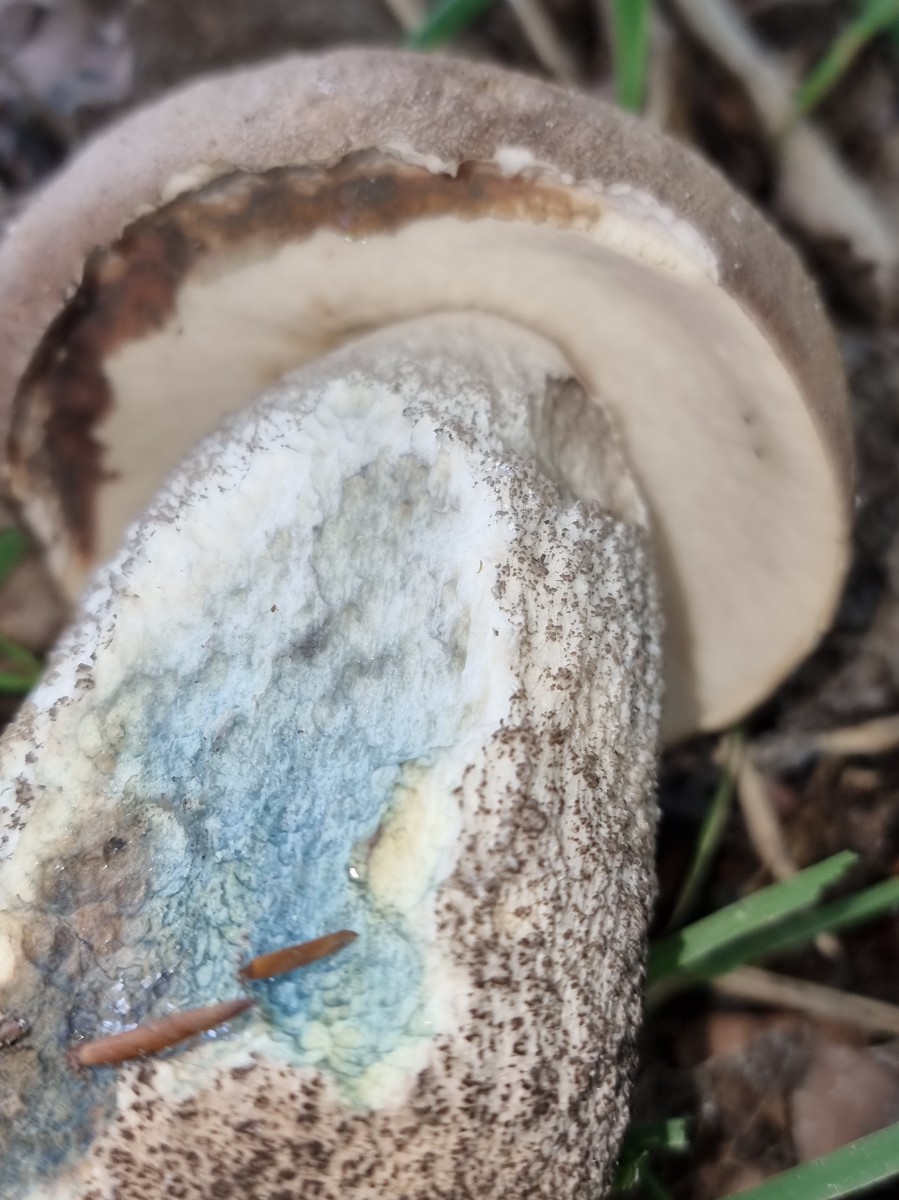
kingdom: Fungi
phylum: Basidiomycota
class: Agaricomycetes
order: Boletales
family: Boletaceae
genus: Leccinum
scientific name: Leccinum duriusculum
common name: poppel-skælrørhat
